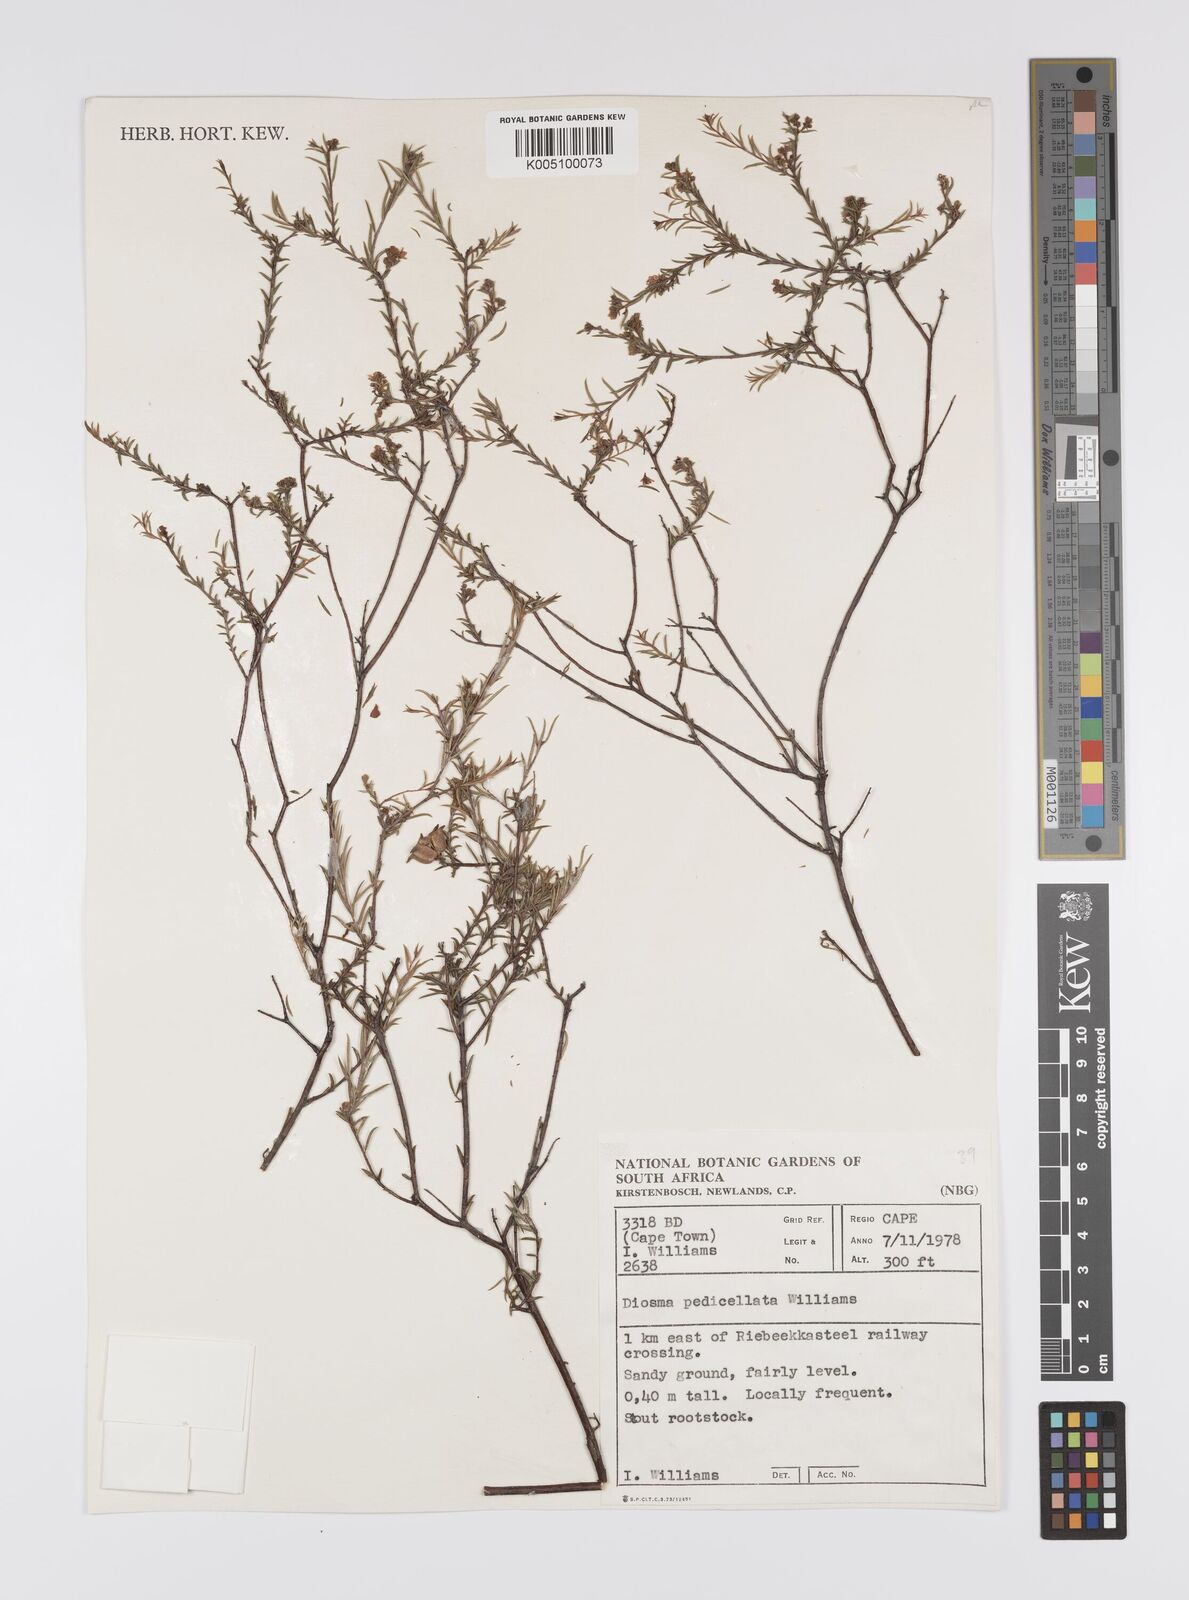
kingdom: Plantae
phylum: Tracheophyta
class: Magnoliopsida
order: Sapindales
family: Rutaceae
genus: Diosma
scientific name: Diosma pedicellata
